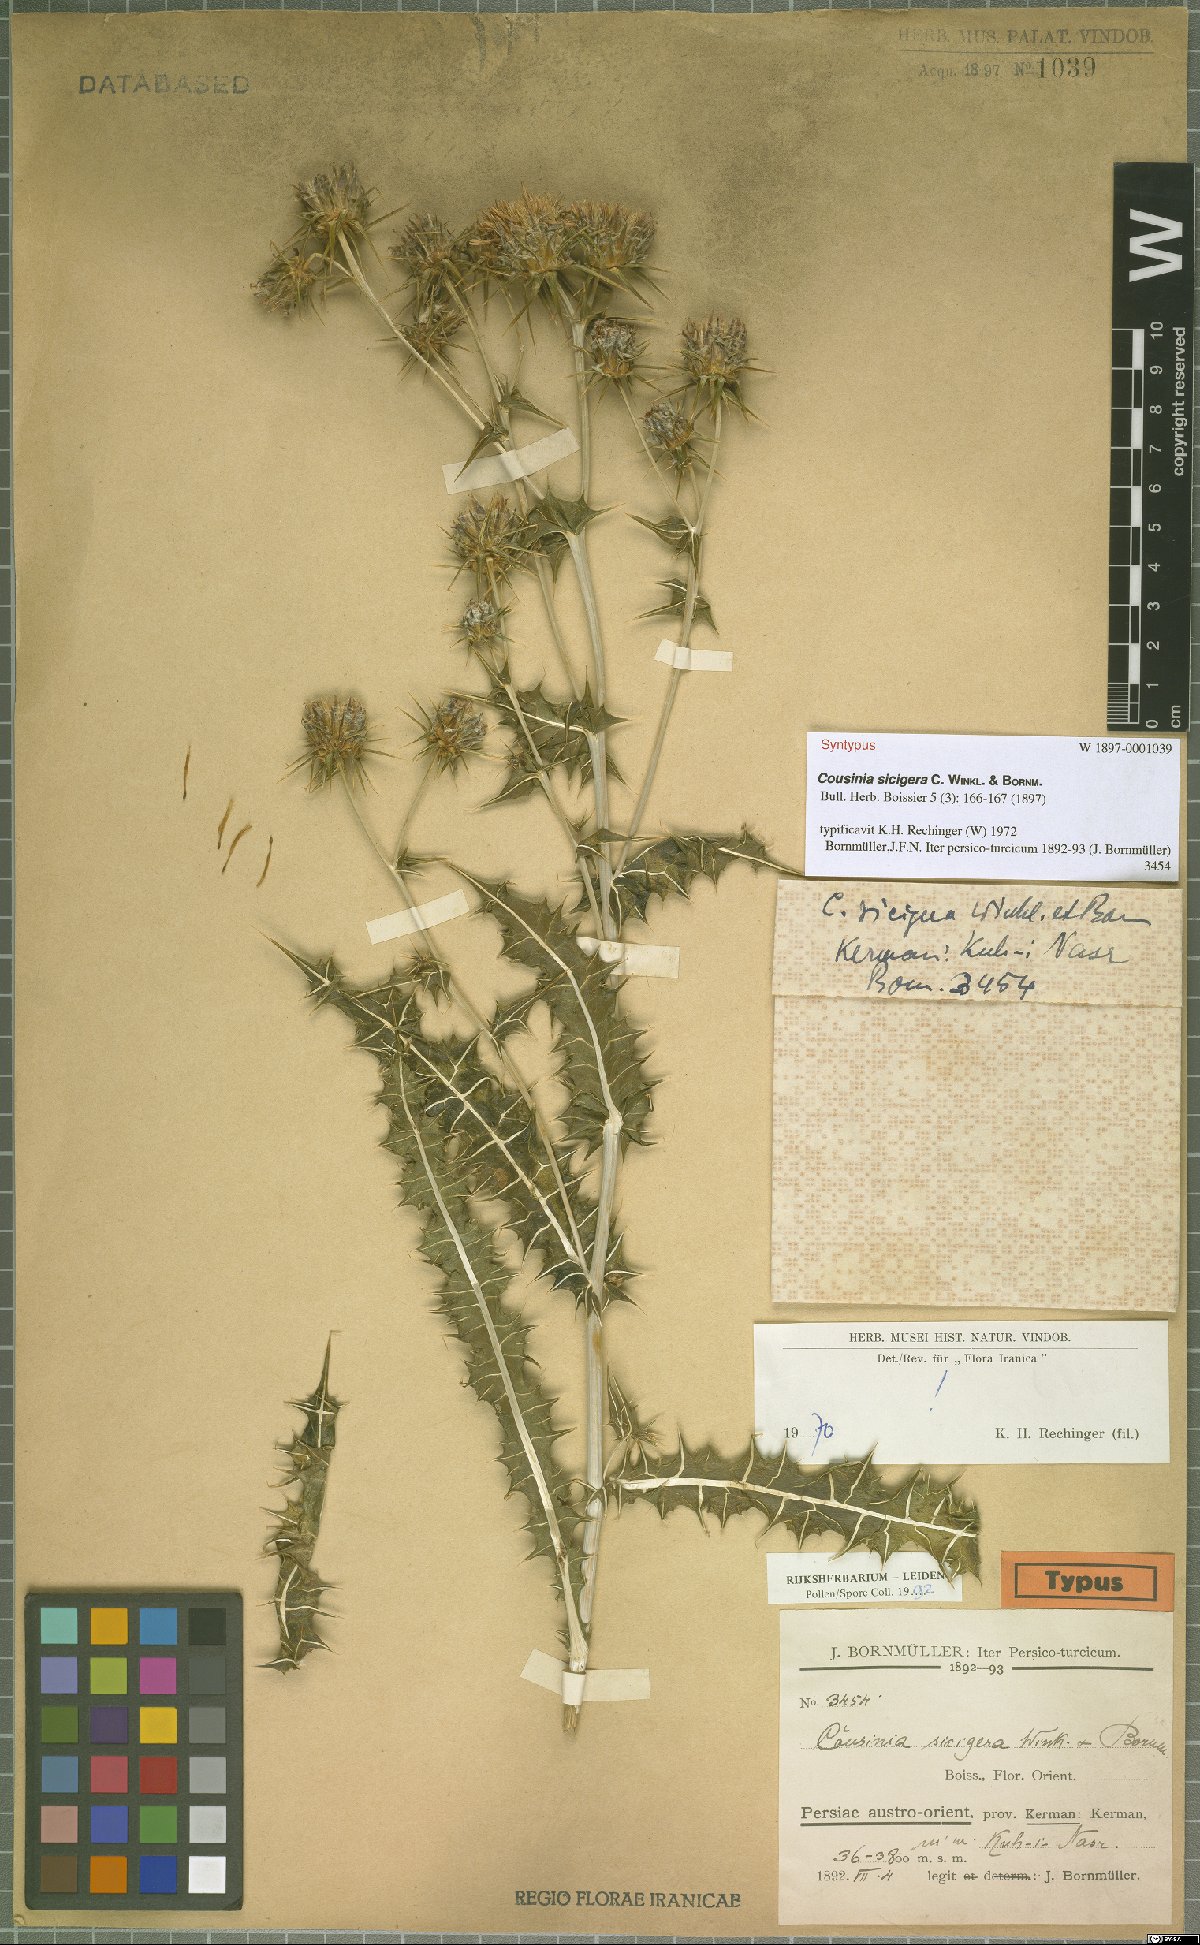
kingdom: Plantae
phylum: Tracheophyta
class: Magnoliopsida
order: Asterales
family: Asteraceae
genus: Cousinia
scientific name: Cousinia sicigera
